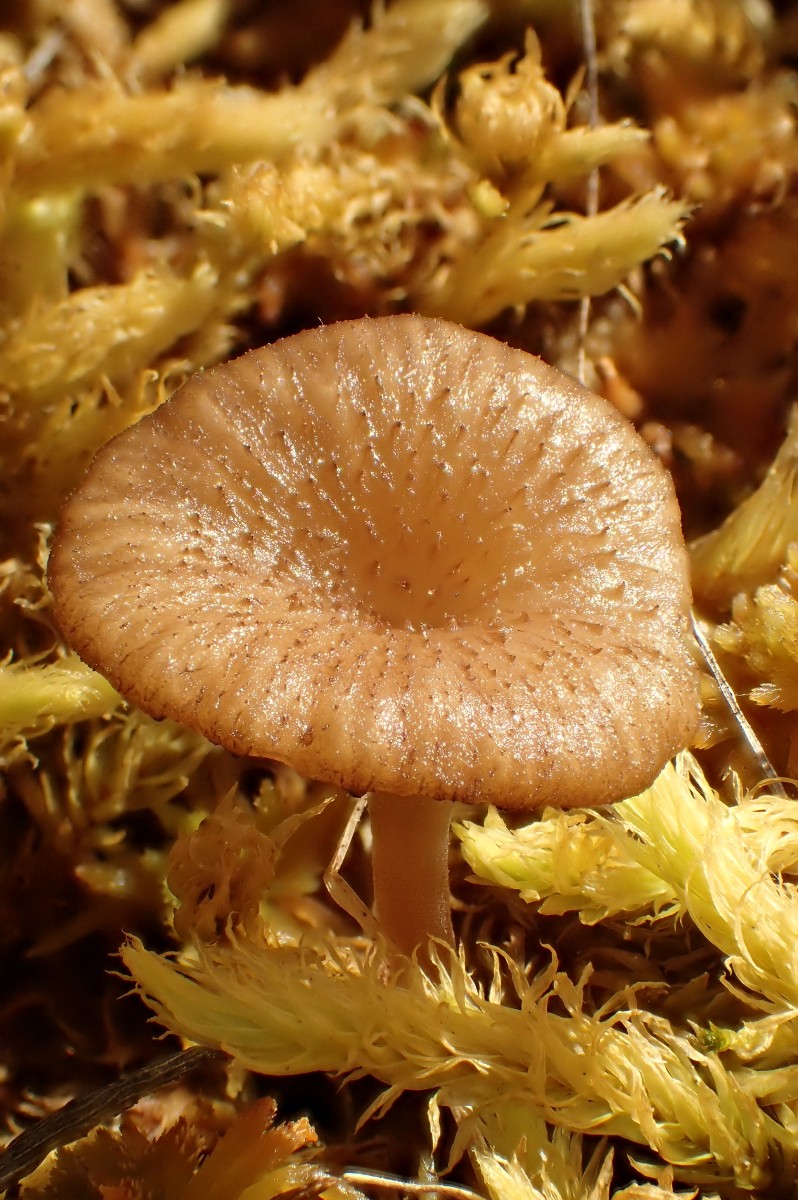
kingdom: Fungi
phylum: Basidiomycota
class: Agaricomycetes
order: Agaricales
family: Hygrophoraceae
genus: Arrhenia
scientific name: Arrhenia gerardiana
